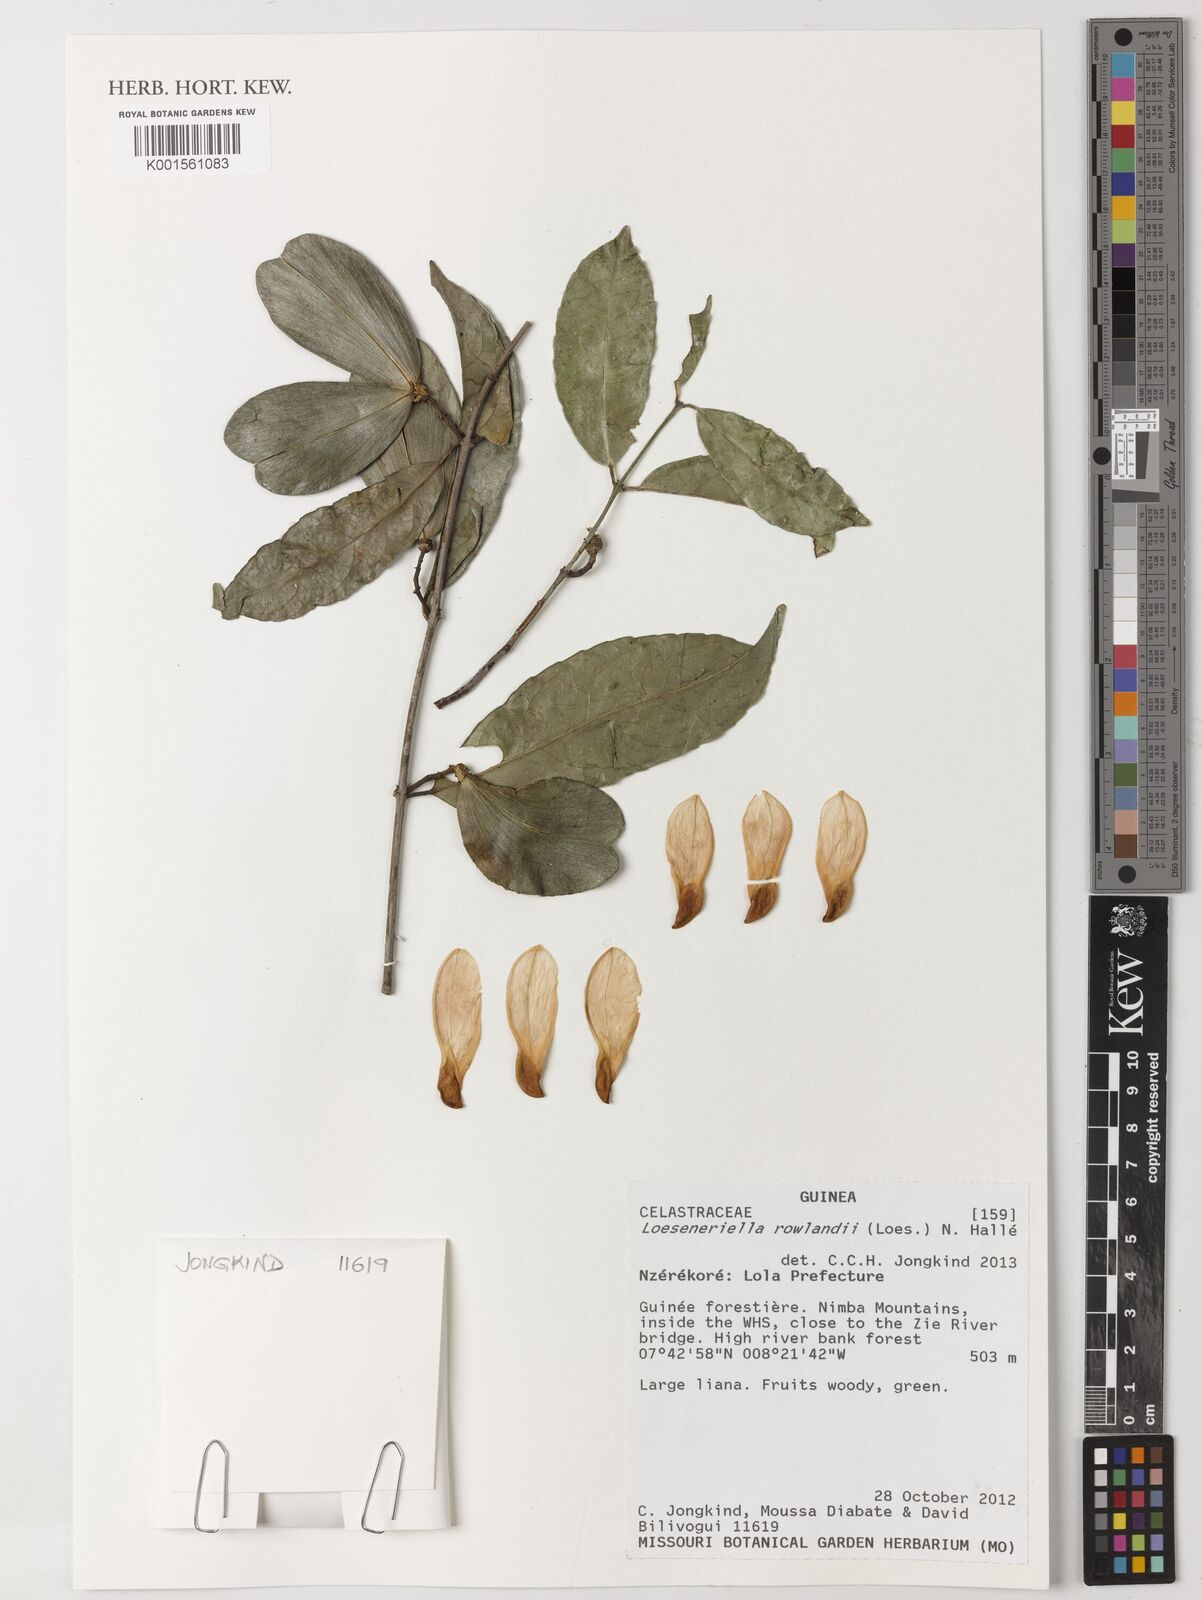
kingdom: Plantae
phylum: Tracheophyta
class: Magnoliopsida
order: Celastrales
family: Celastraceae
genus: Loeseneriella
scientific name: Loeseneriella rowlandii
